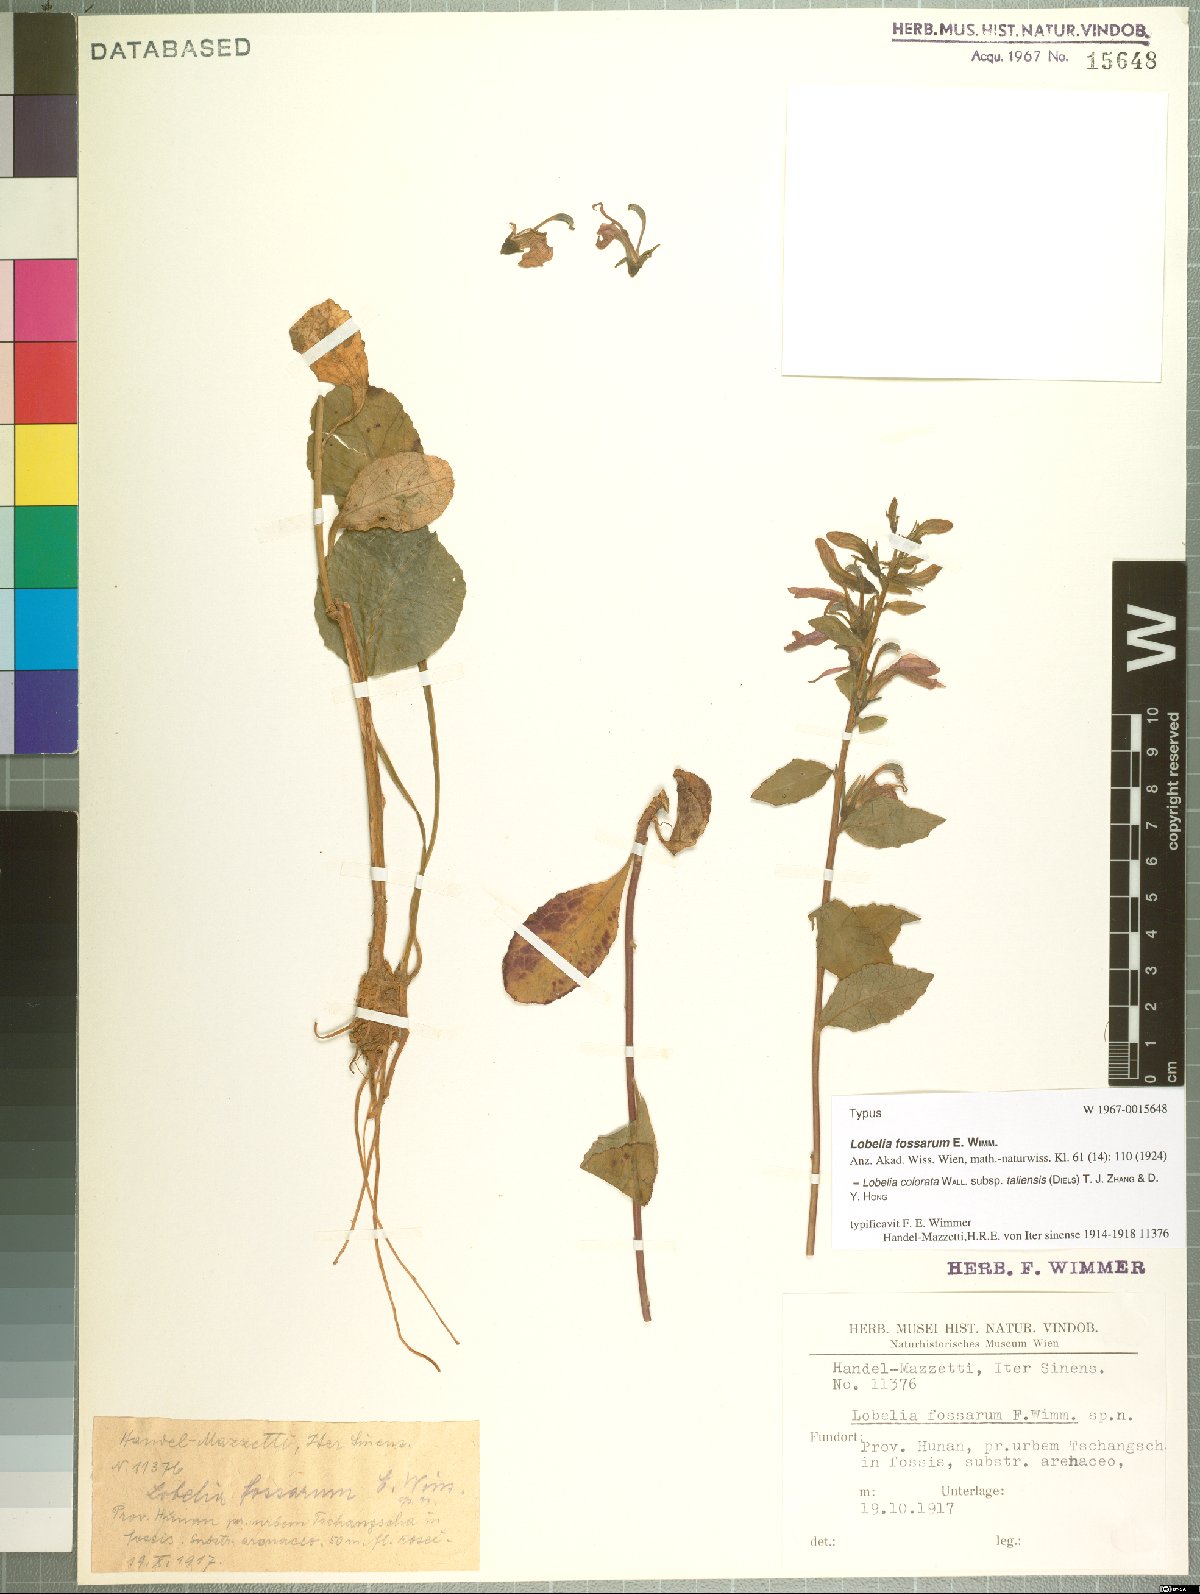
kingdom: Plantae
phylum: Tracheophyta
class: Magnoliopsida
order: Asterales
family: Campanulaceae
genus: Lobelia
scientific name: Lobelia taliensis
